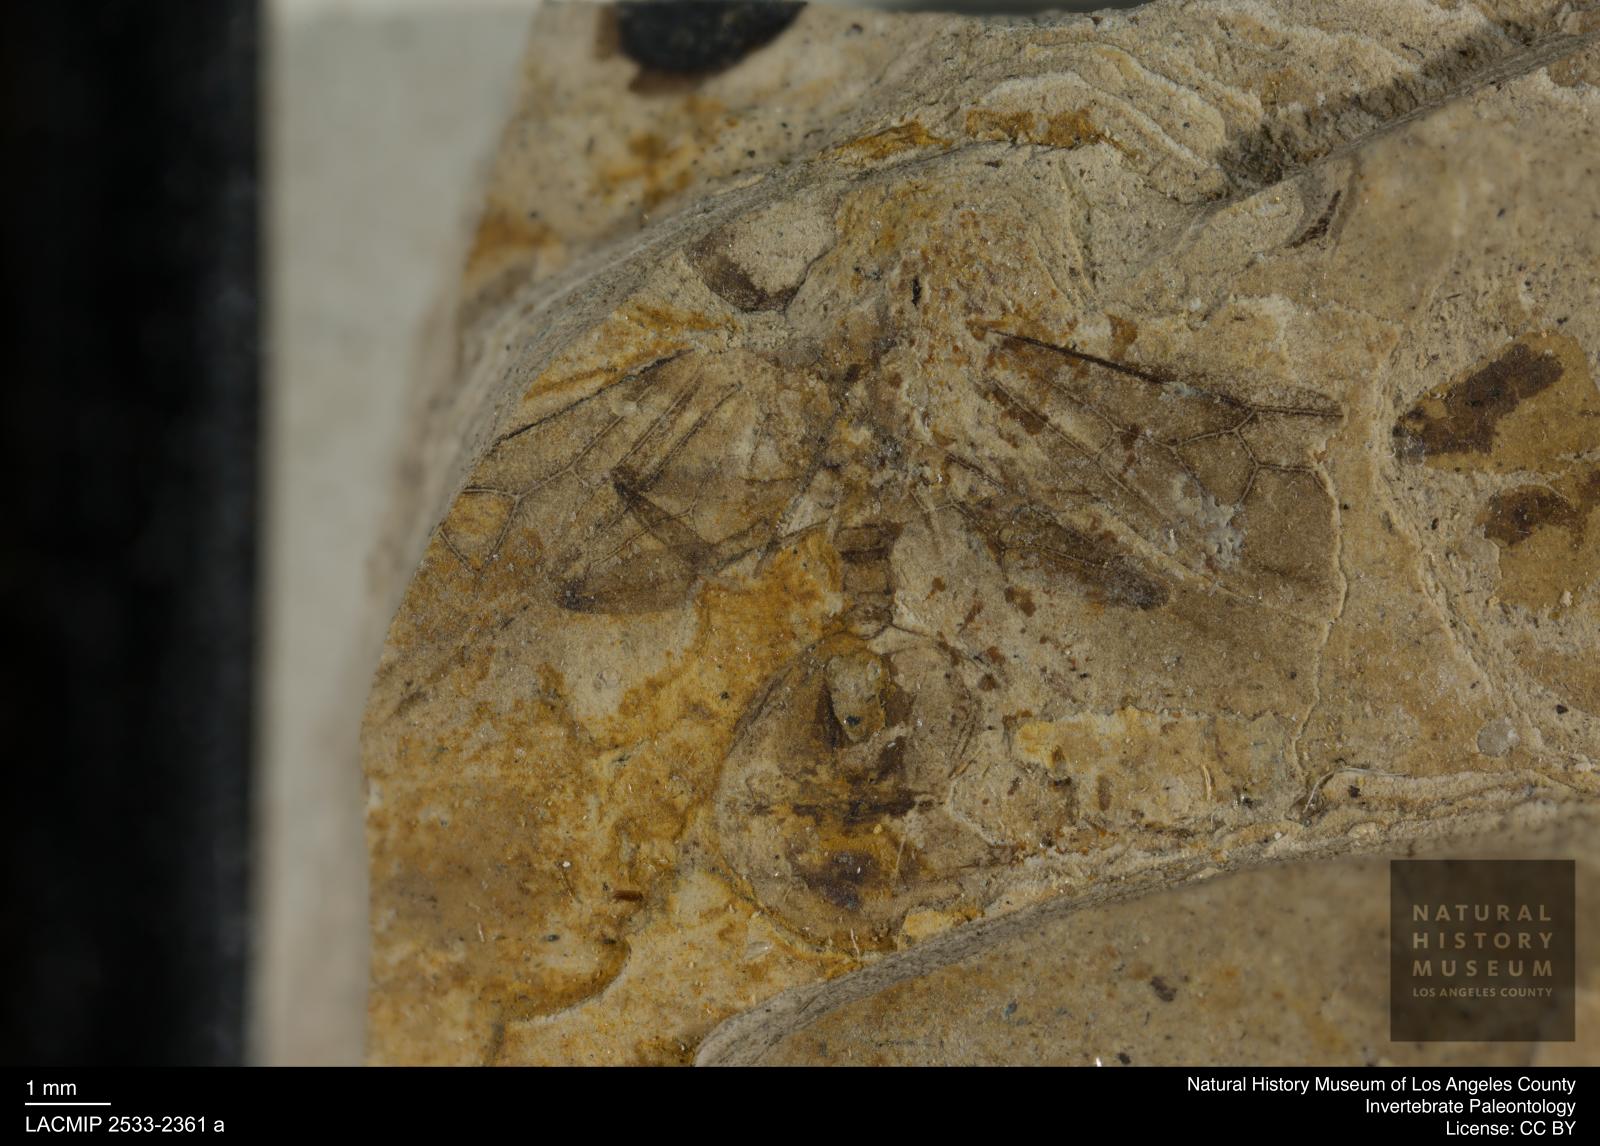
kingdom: Animalia
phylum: Arthropoda
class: Insecta
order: Hymenoptera
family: Formicidae
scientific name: Formicidae
